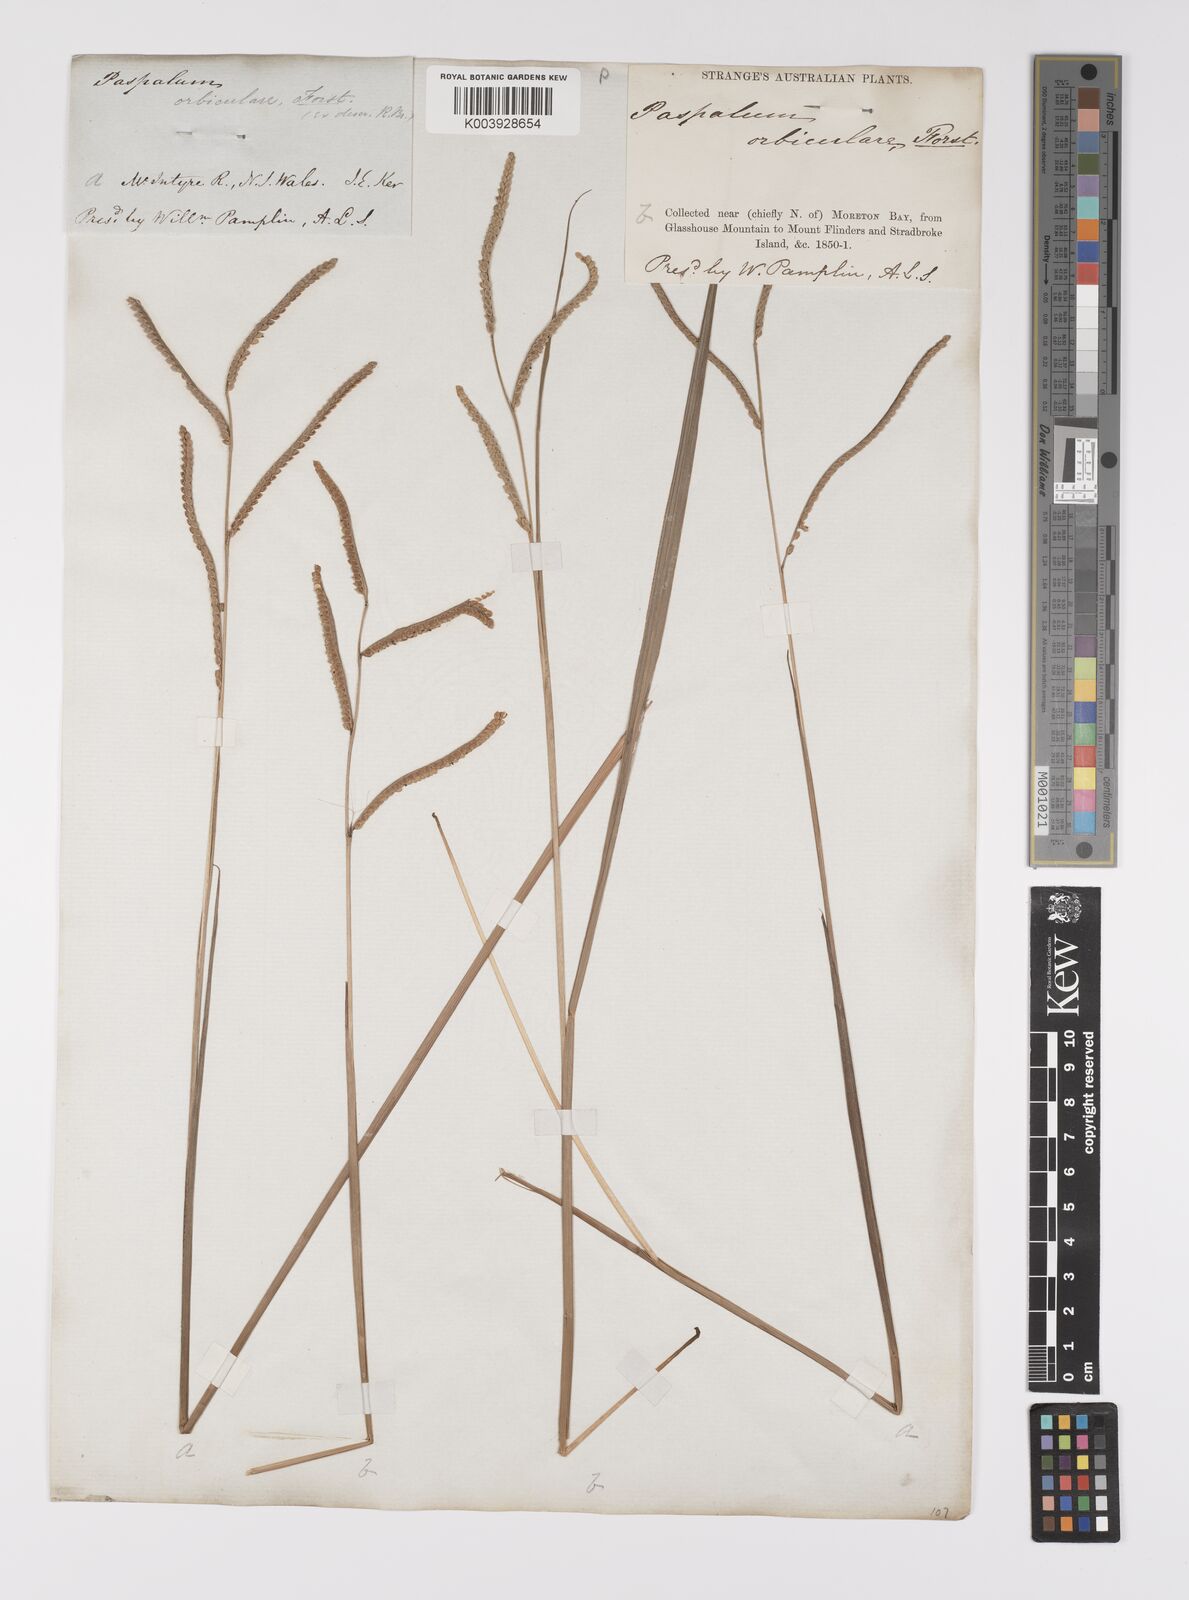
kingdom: Plantae
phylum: Tracheophyta
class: Liliopsida
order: Poales
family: Poaceae
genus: Paspalum
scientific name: Paspalum scrobiculatum
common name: Kodo millet
